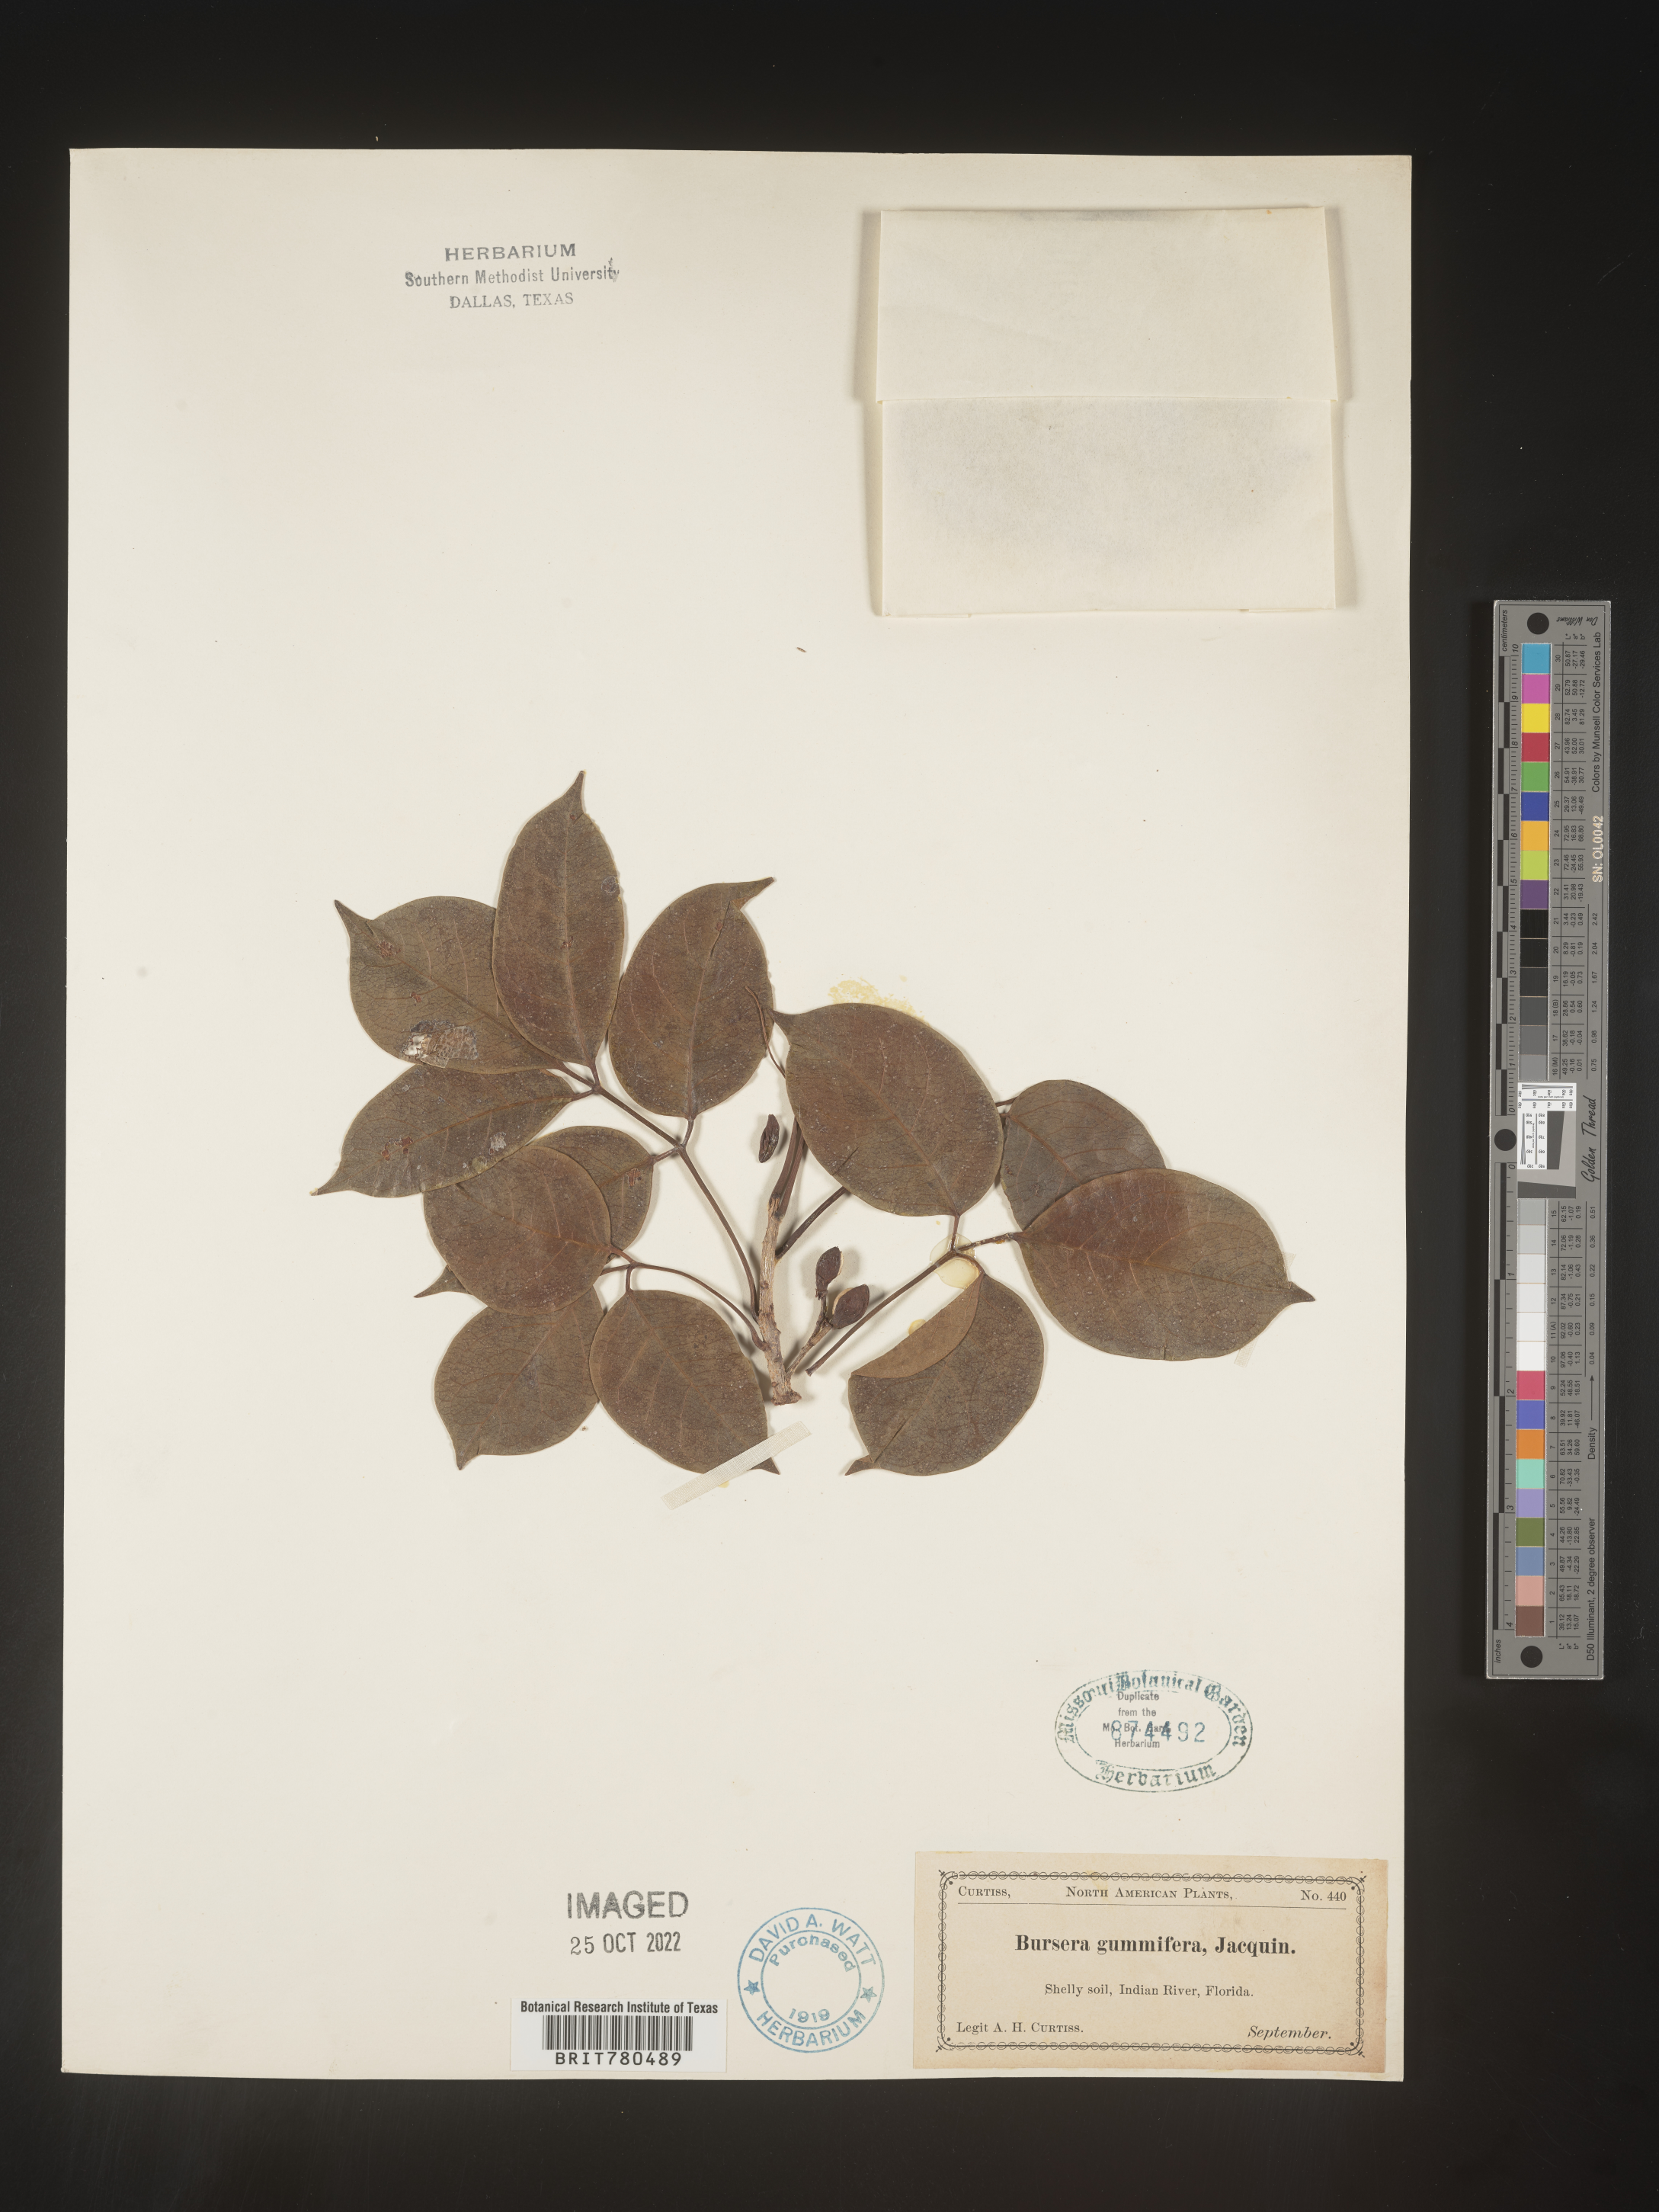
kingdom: Plantae
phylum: Tracheophyta
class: Magnoliopsida
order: Sapindales
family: Burseraceae
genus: Bursera
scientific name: Bursera
